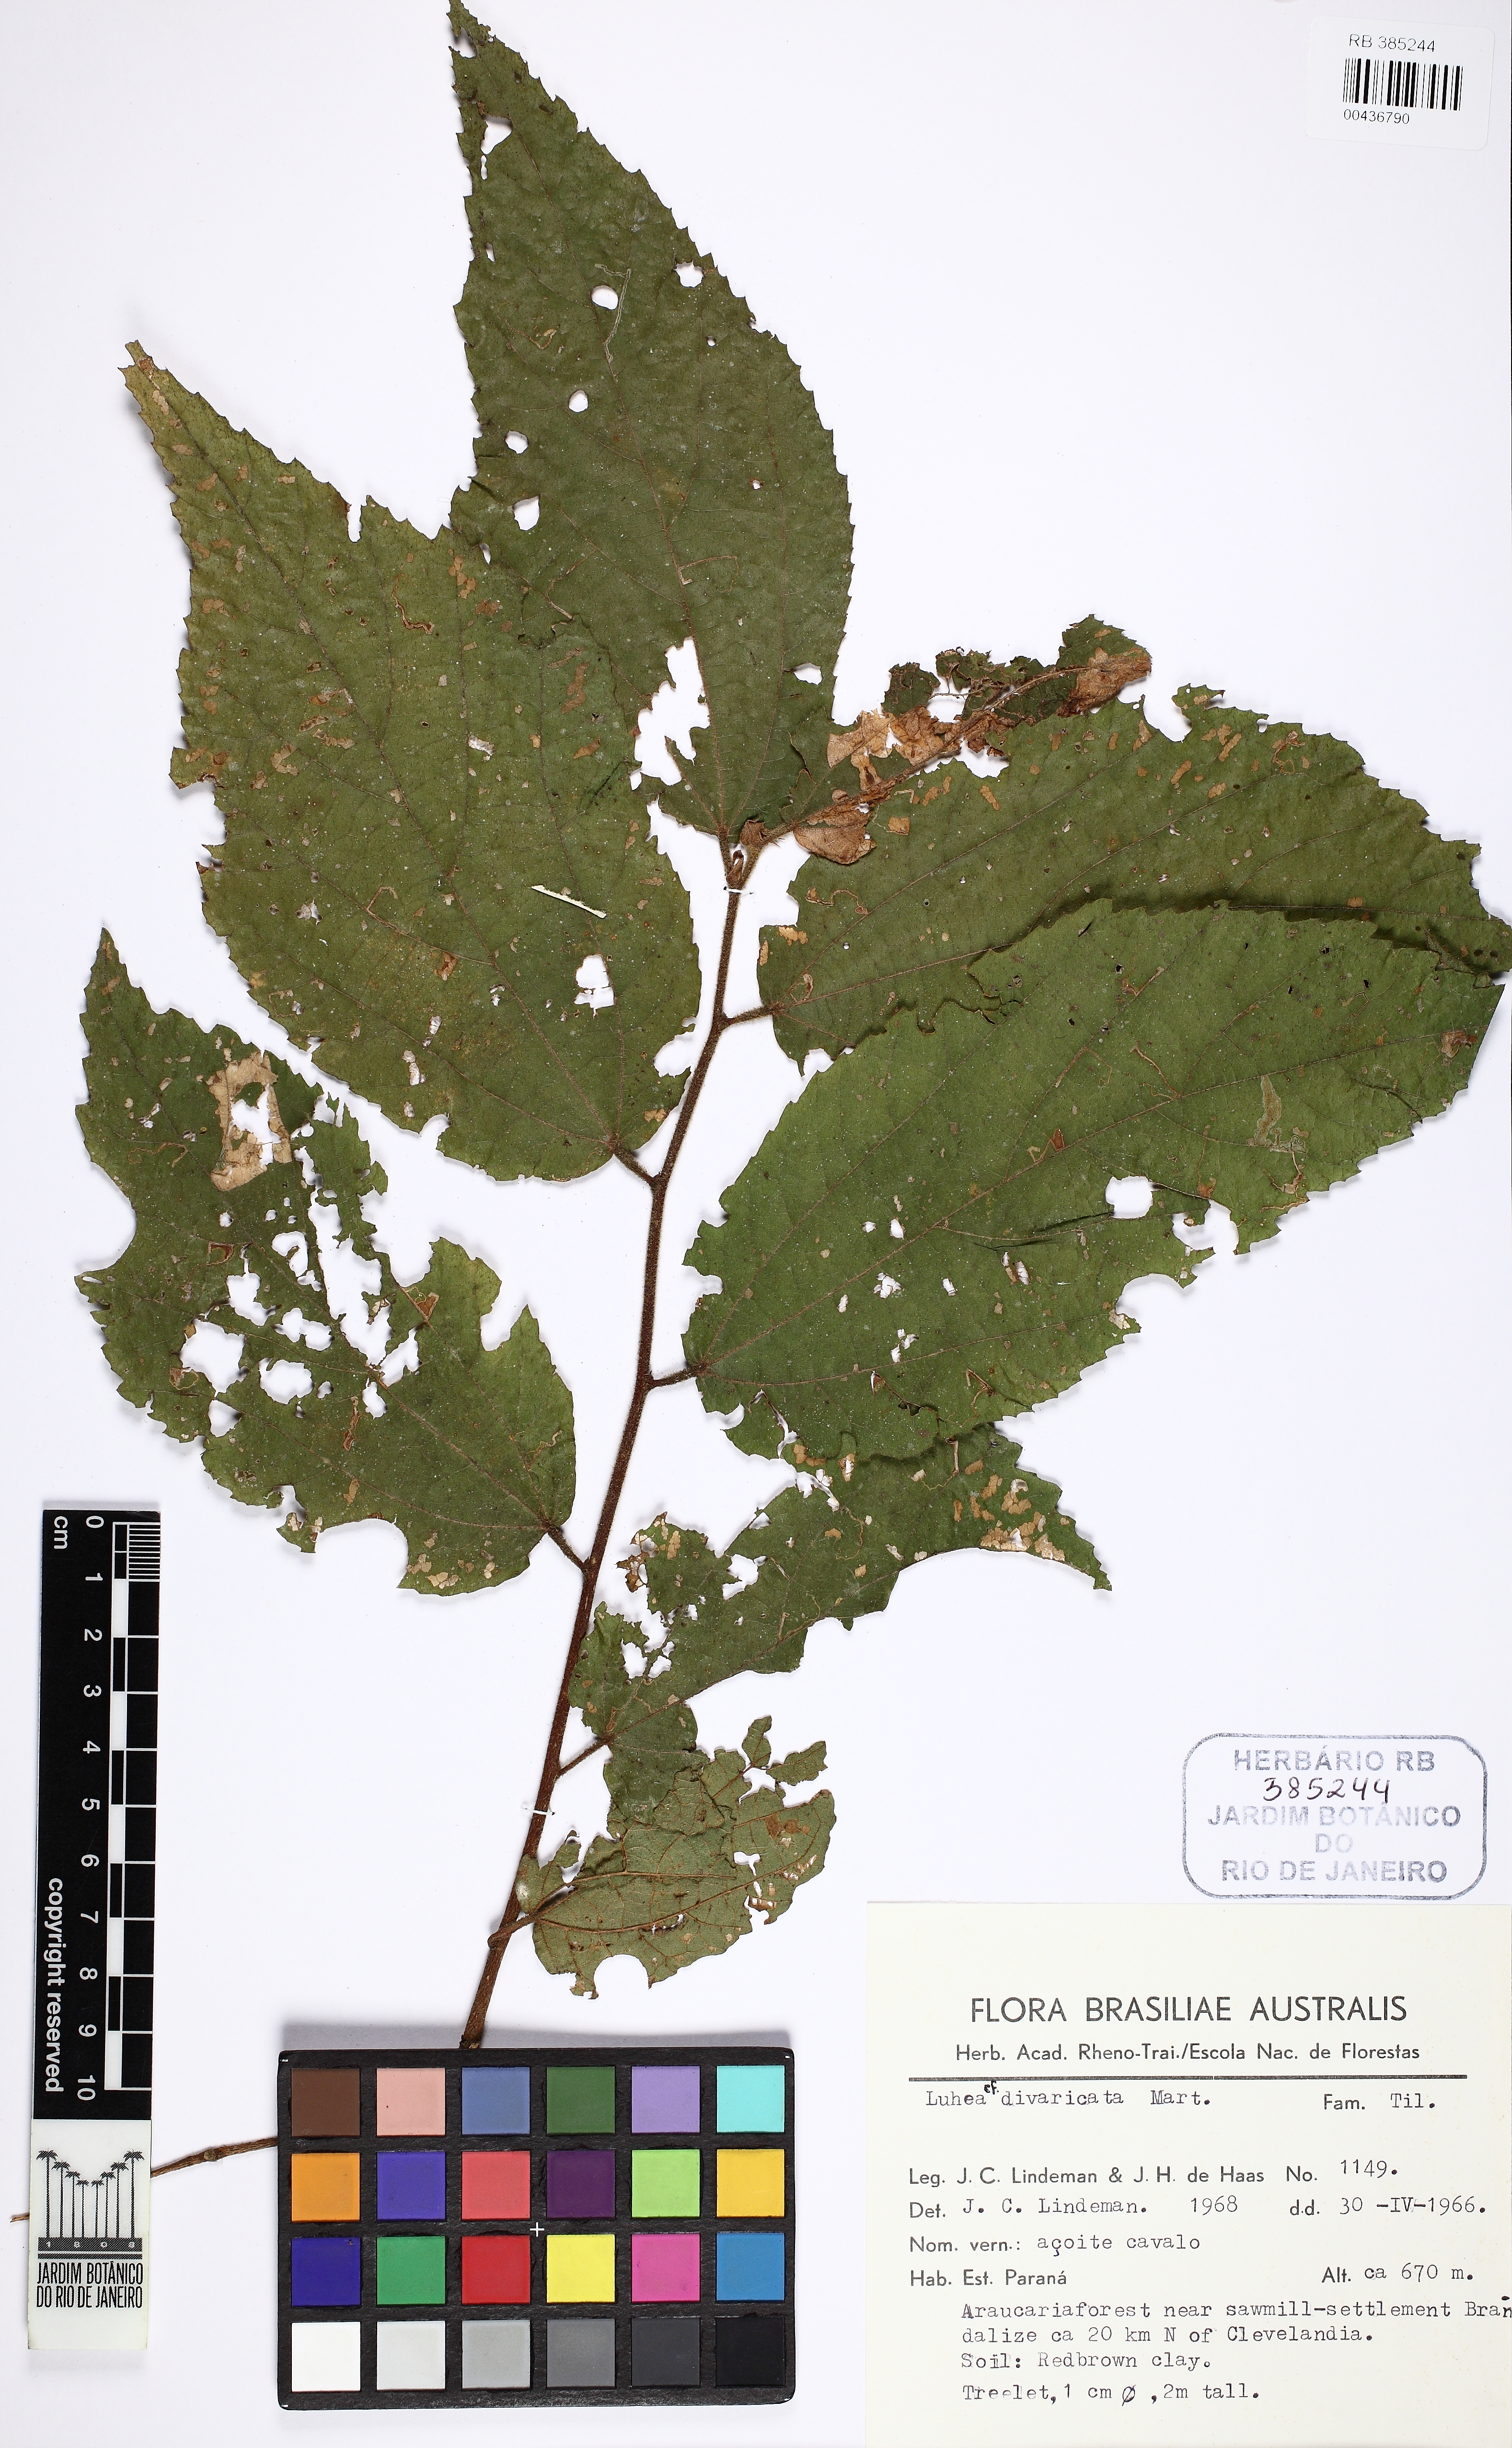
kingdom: Plantae
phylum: Tracheophyta
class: Magnoliopsida
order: Malvales
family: Malvaceae
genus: Luehea
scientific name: Luehea divaricata
